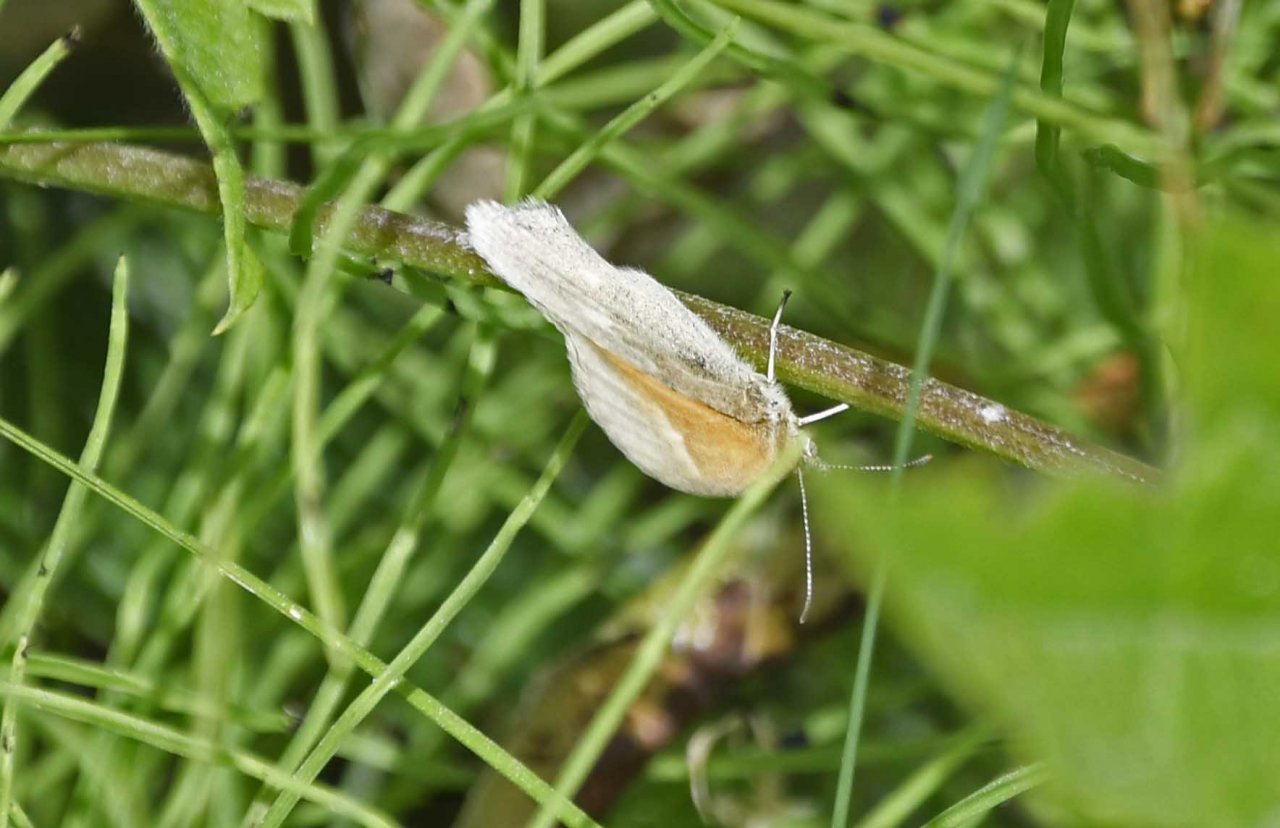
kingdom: Animalia
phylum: Arthropoda
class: Insecta
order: Lepidoptera
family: Nymphalidae
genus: Coenonympha
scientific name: Coenonympha tullia
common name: Large Heath
